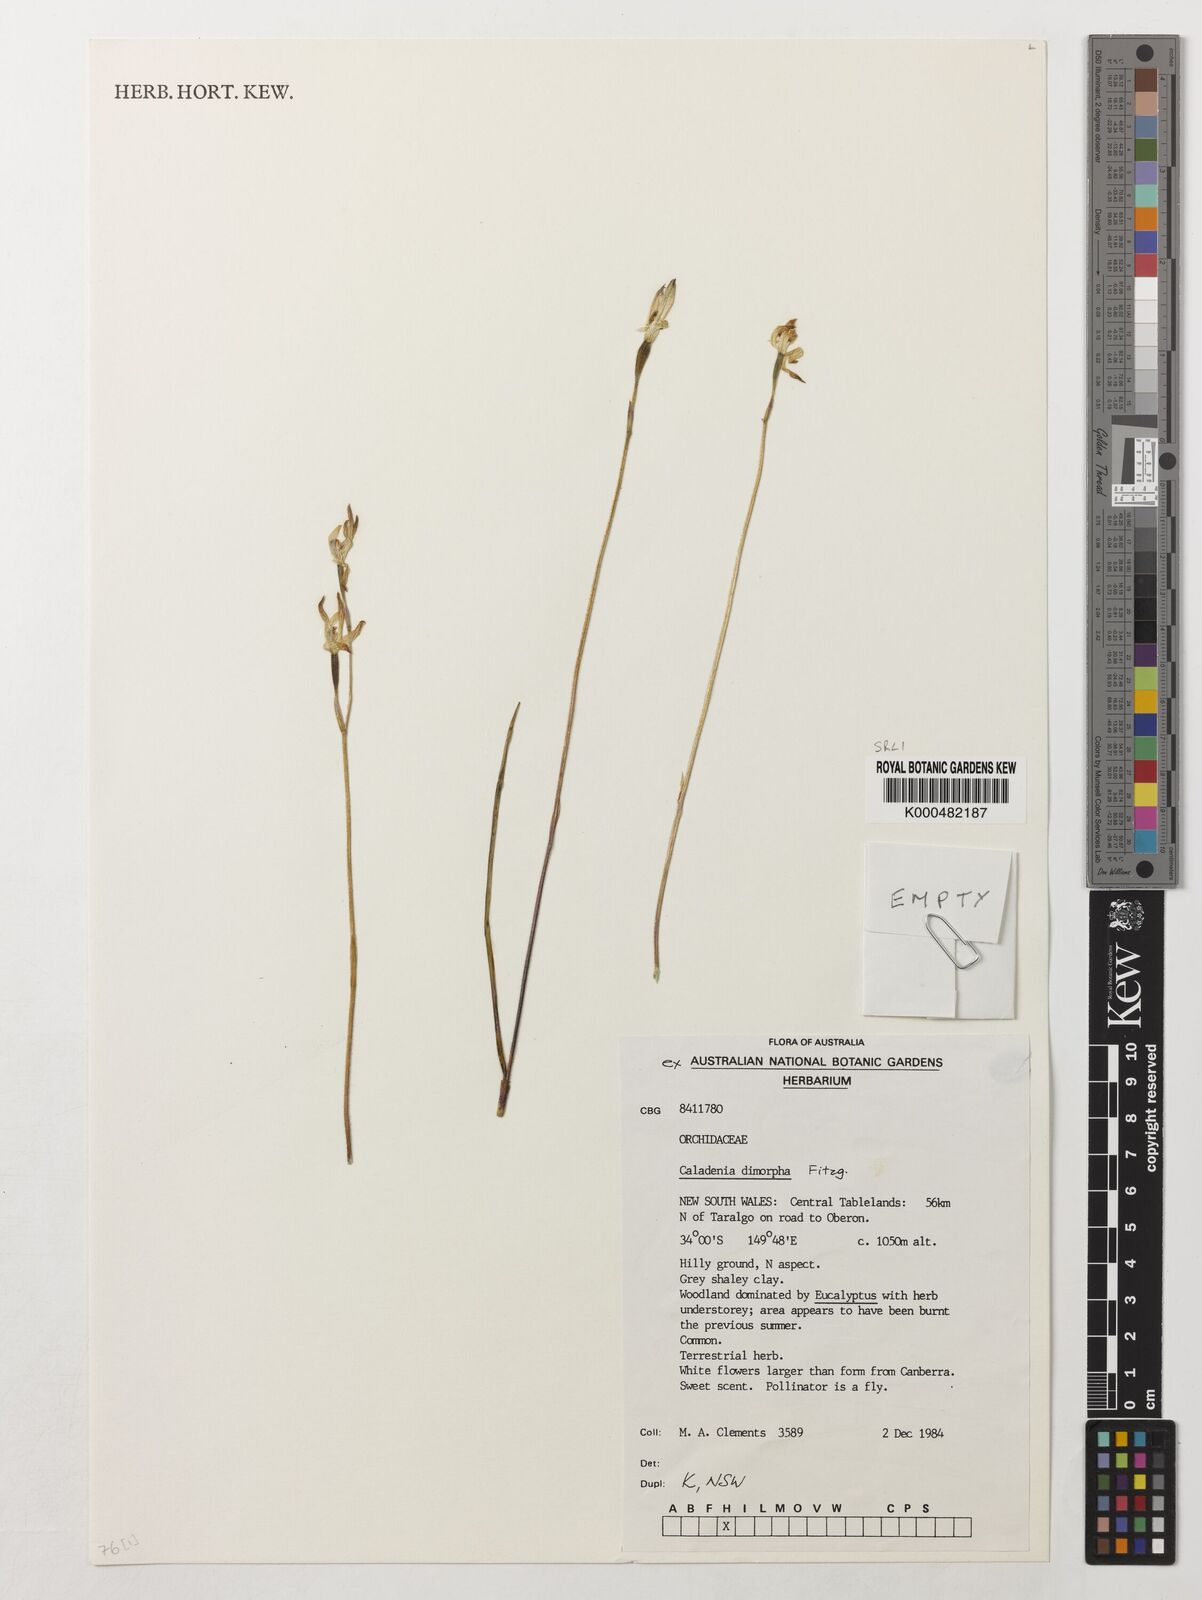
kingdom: Plantae
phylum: Tracheophyta
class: Liliopsida
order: Asparagales
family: Orchidaceae
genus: Caladenia
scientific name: Caladenia
